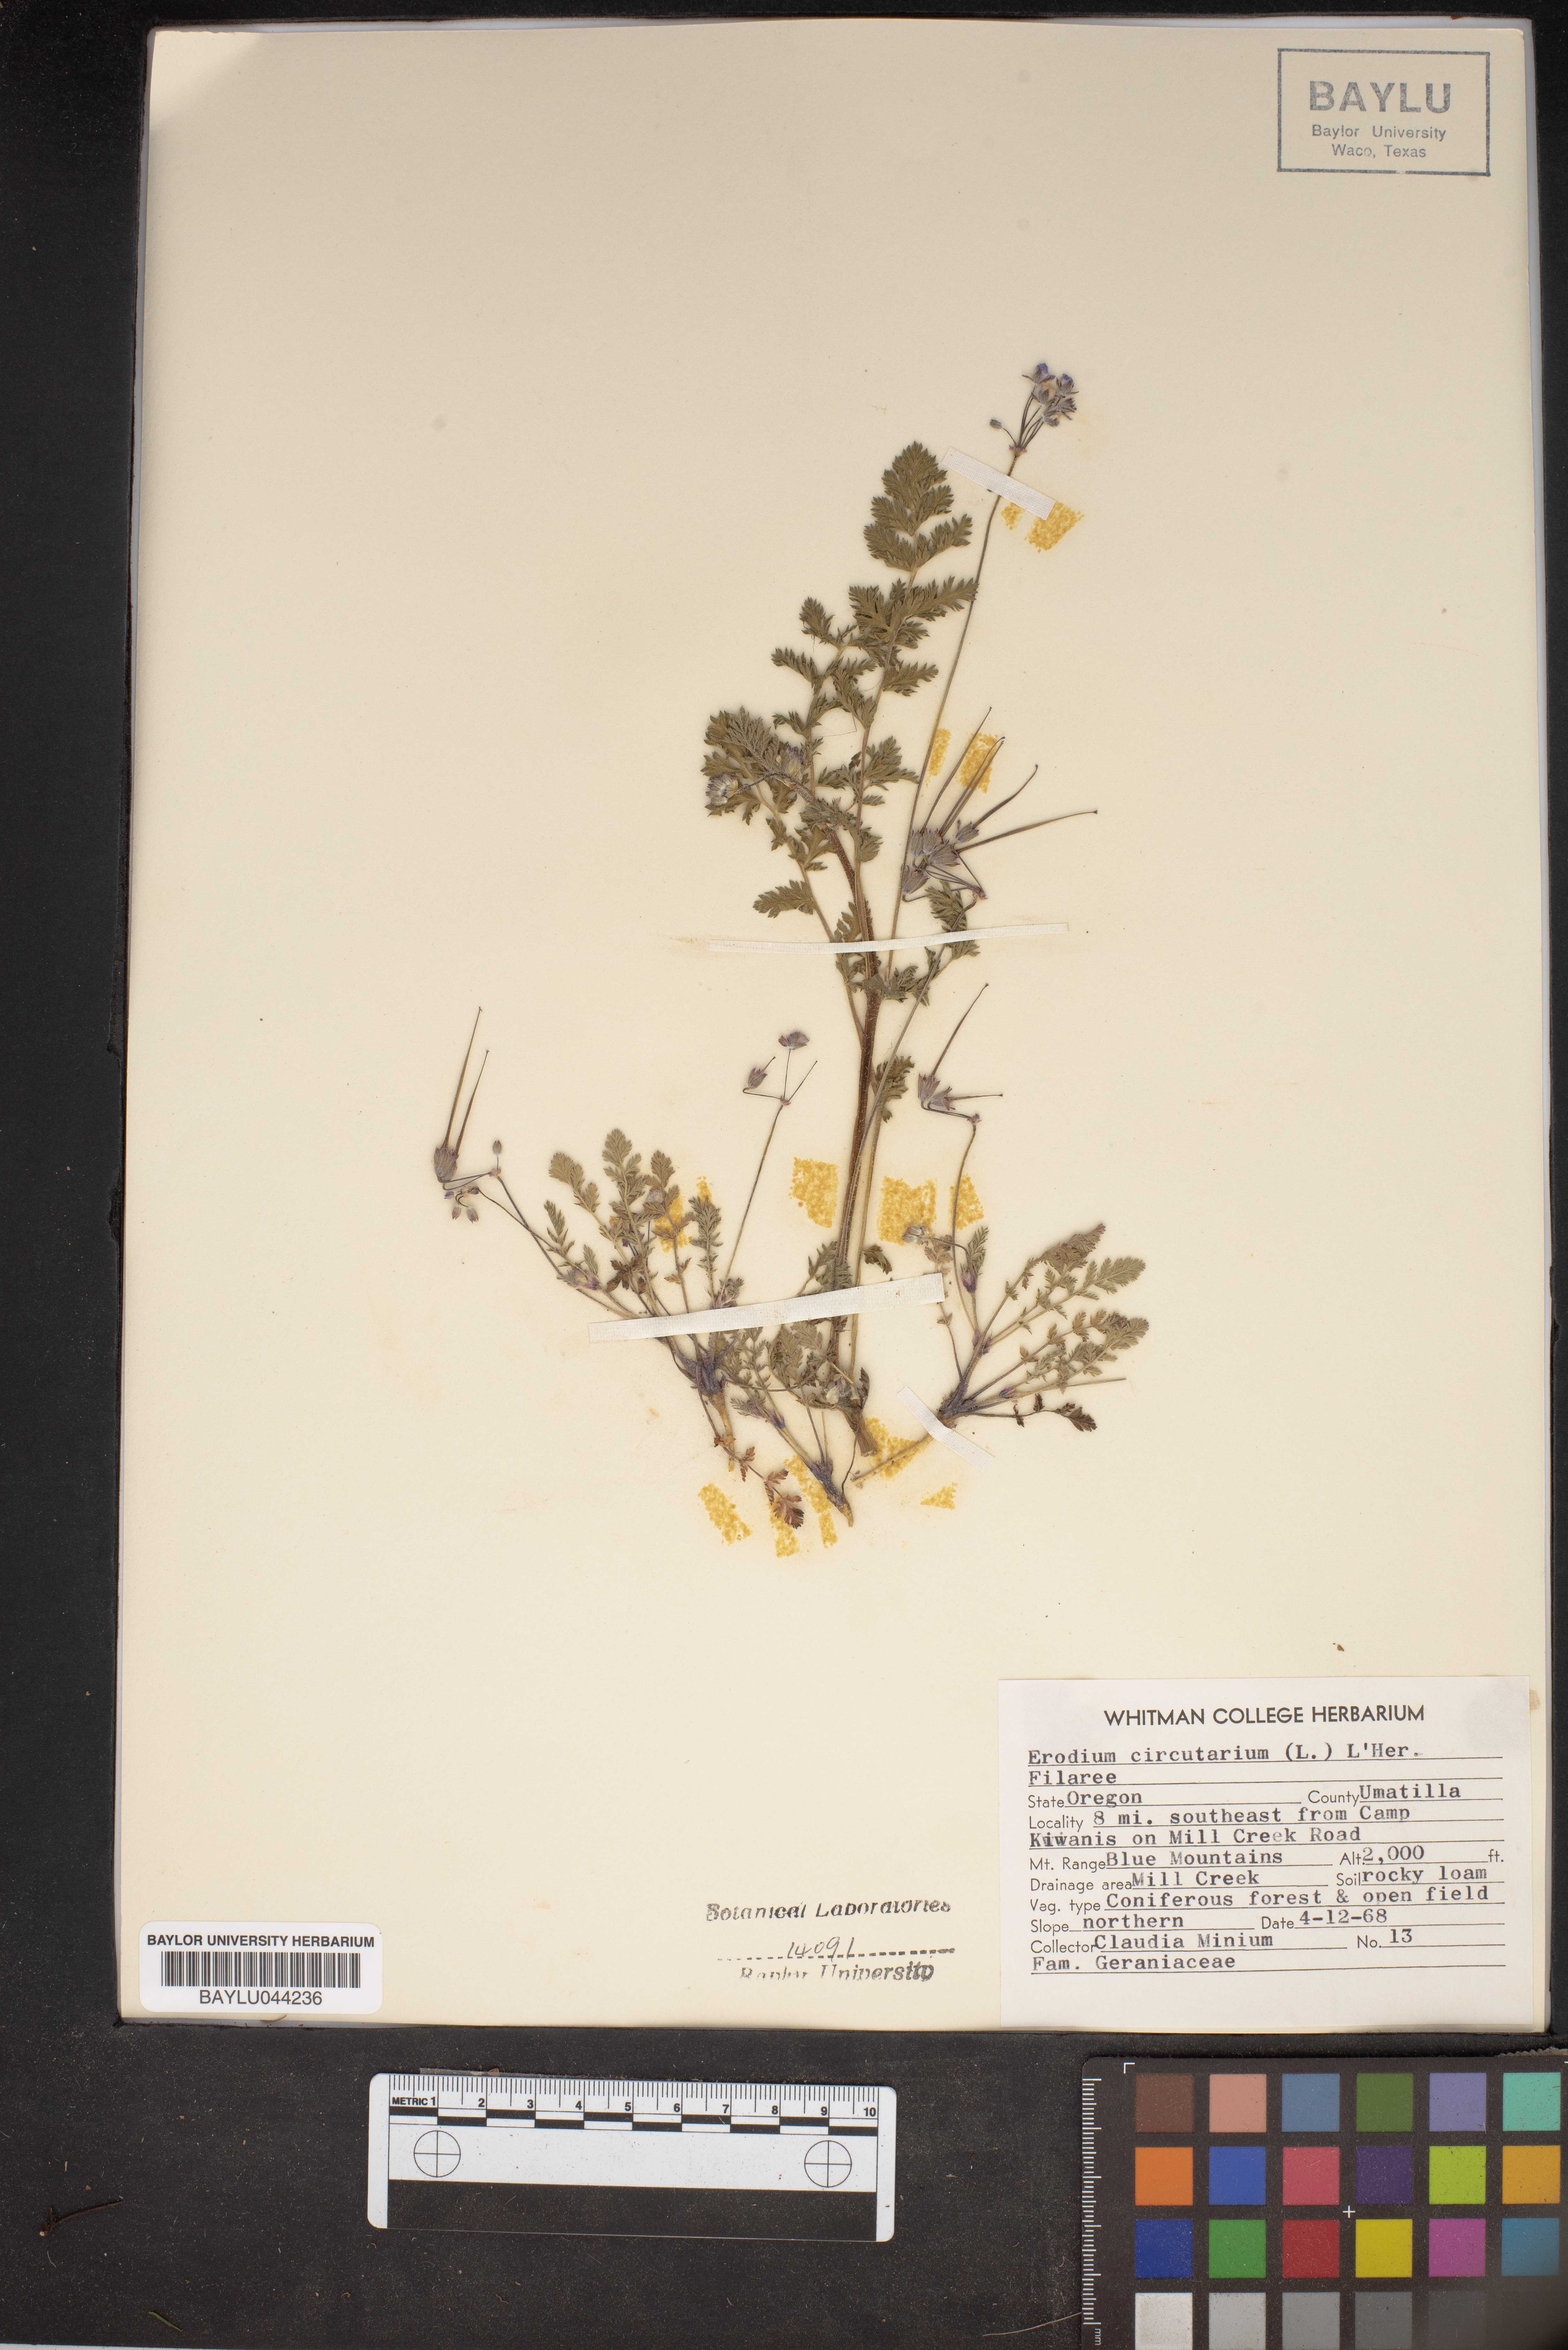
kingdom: Plantae
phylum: Tracheophyta
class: Magnoliopsida
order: Geraniales
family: Geraniaceae
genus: Erodium
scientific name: Erodium cicutarium
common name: Common stork's-bill
